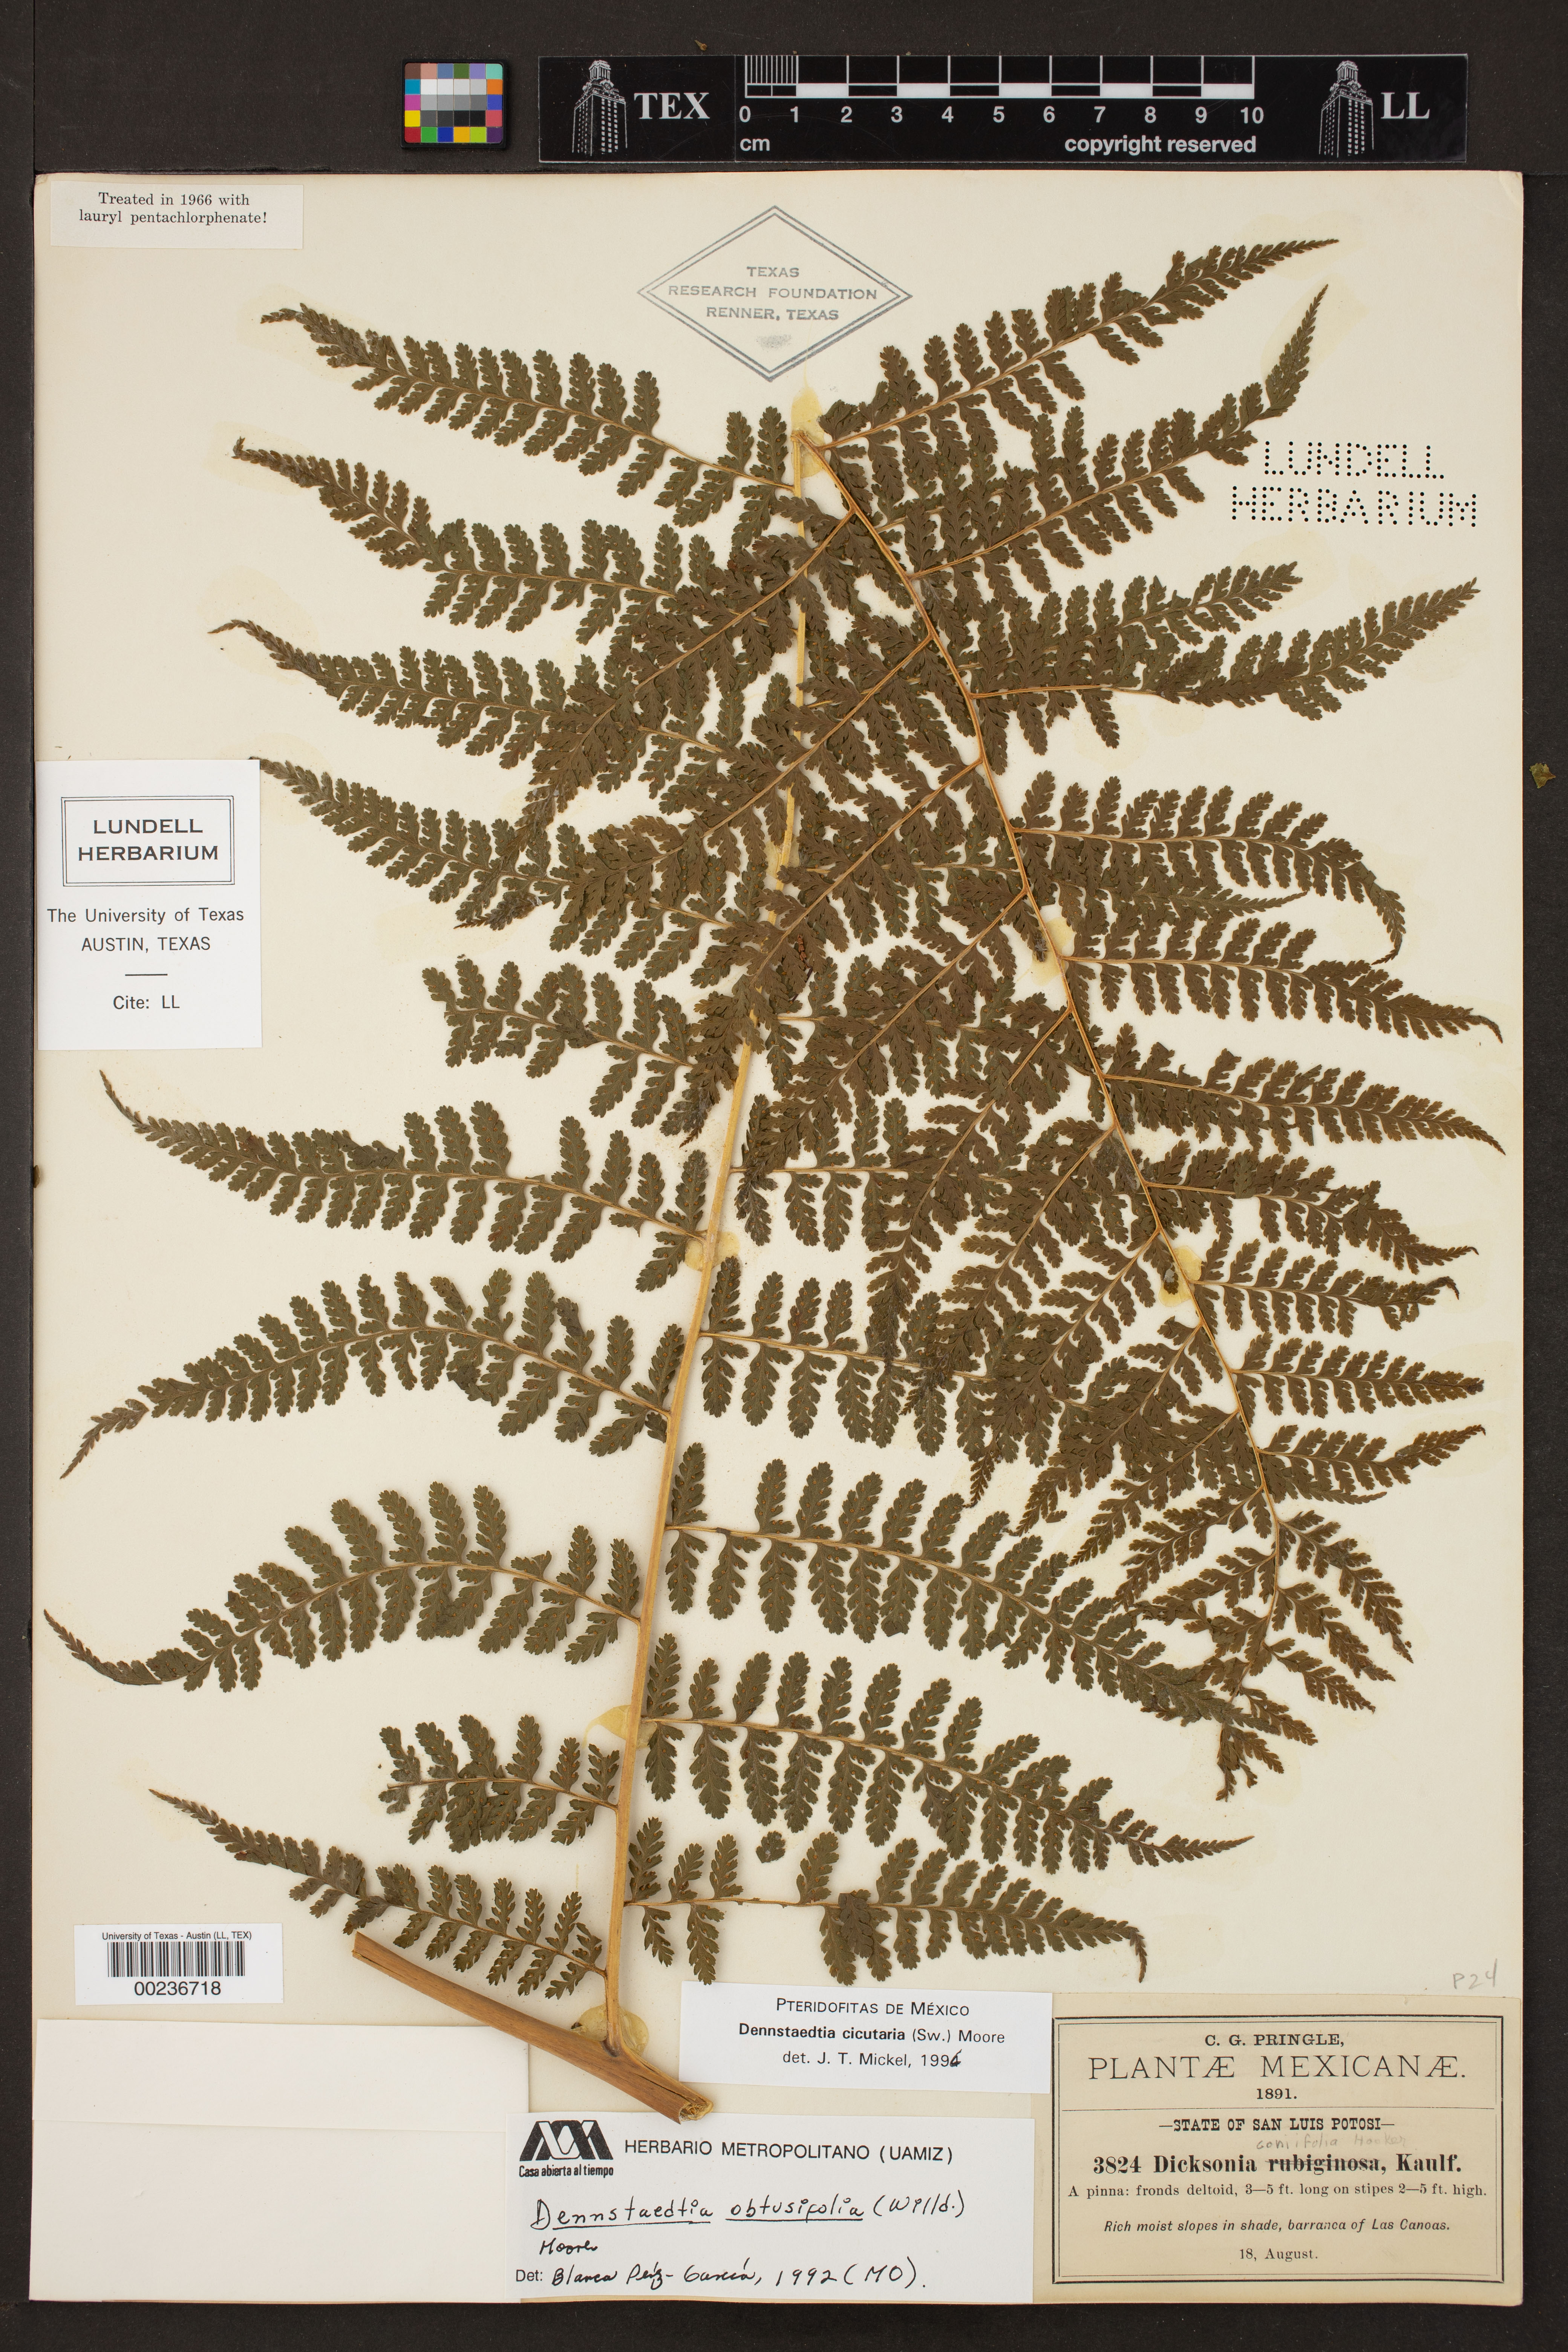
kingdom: Plantae
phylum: Tracheophyta
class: Polypodiopsida
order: Polypodiales
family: Dennstaedtiaceae
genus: Dennstaedtia
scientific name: Dennstaedtia cicutaria
